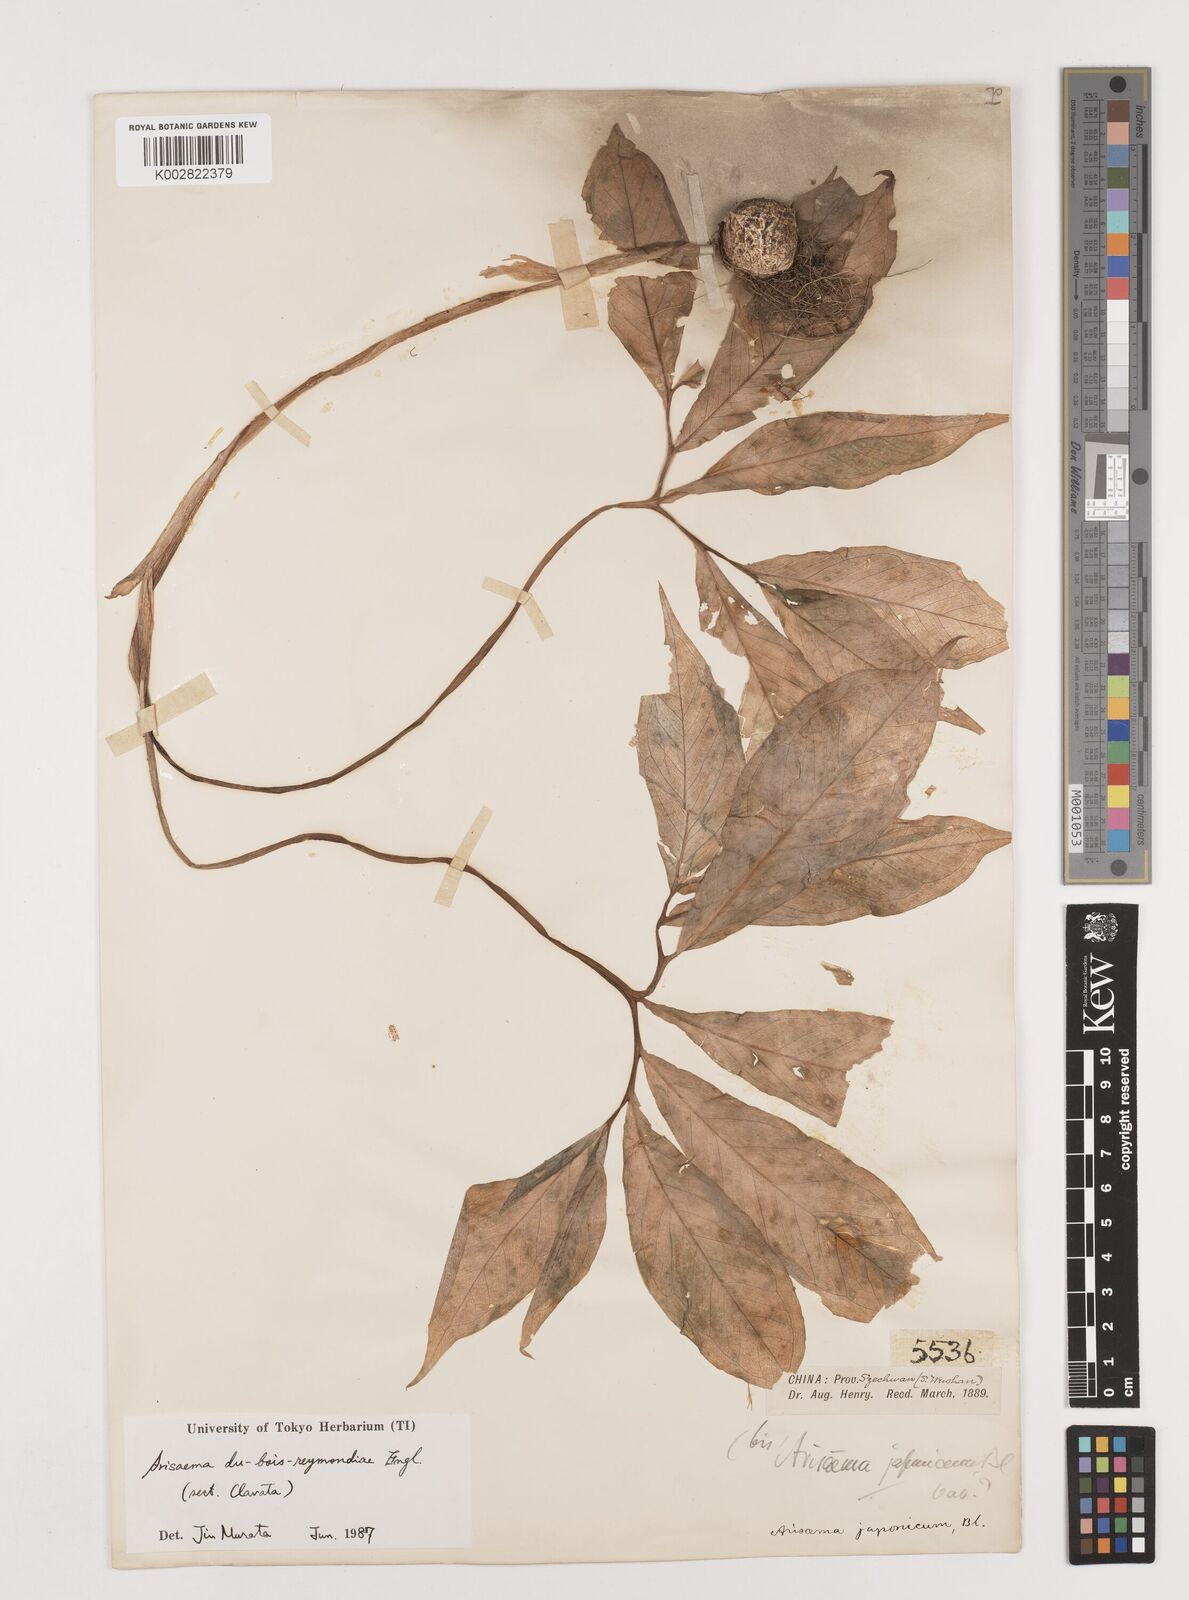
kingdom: Plantae
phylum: Tracheophyta
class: Liliopsida
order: Alismatales
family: Araceae
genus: Arisaema
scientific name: Arisaema silvestrii
